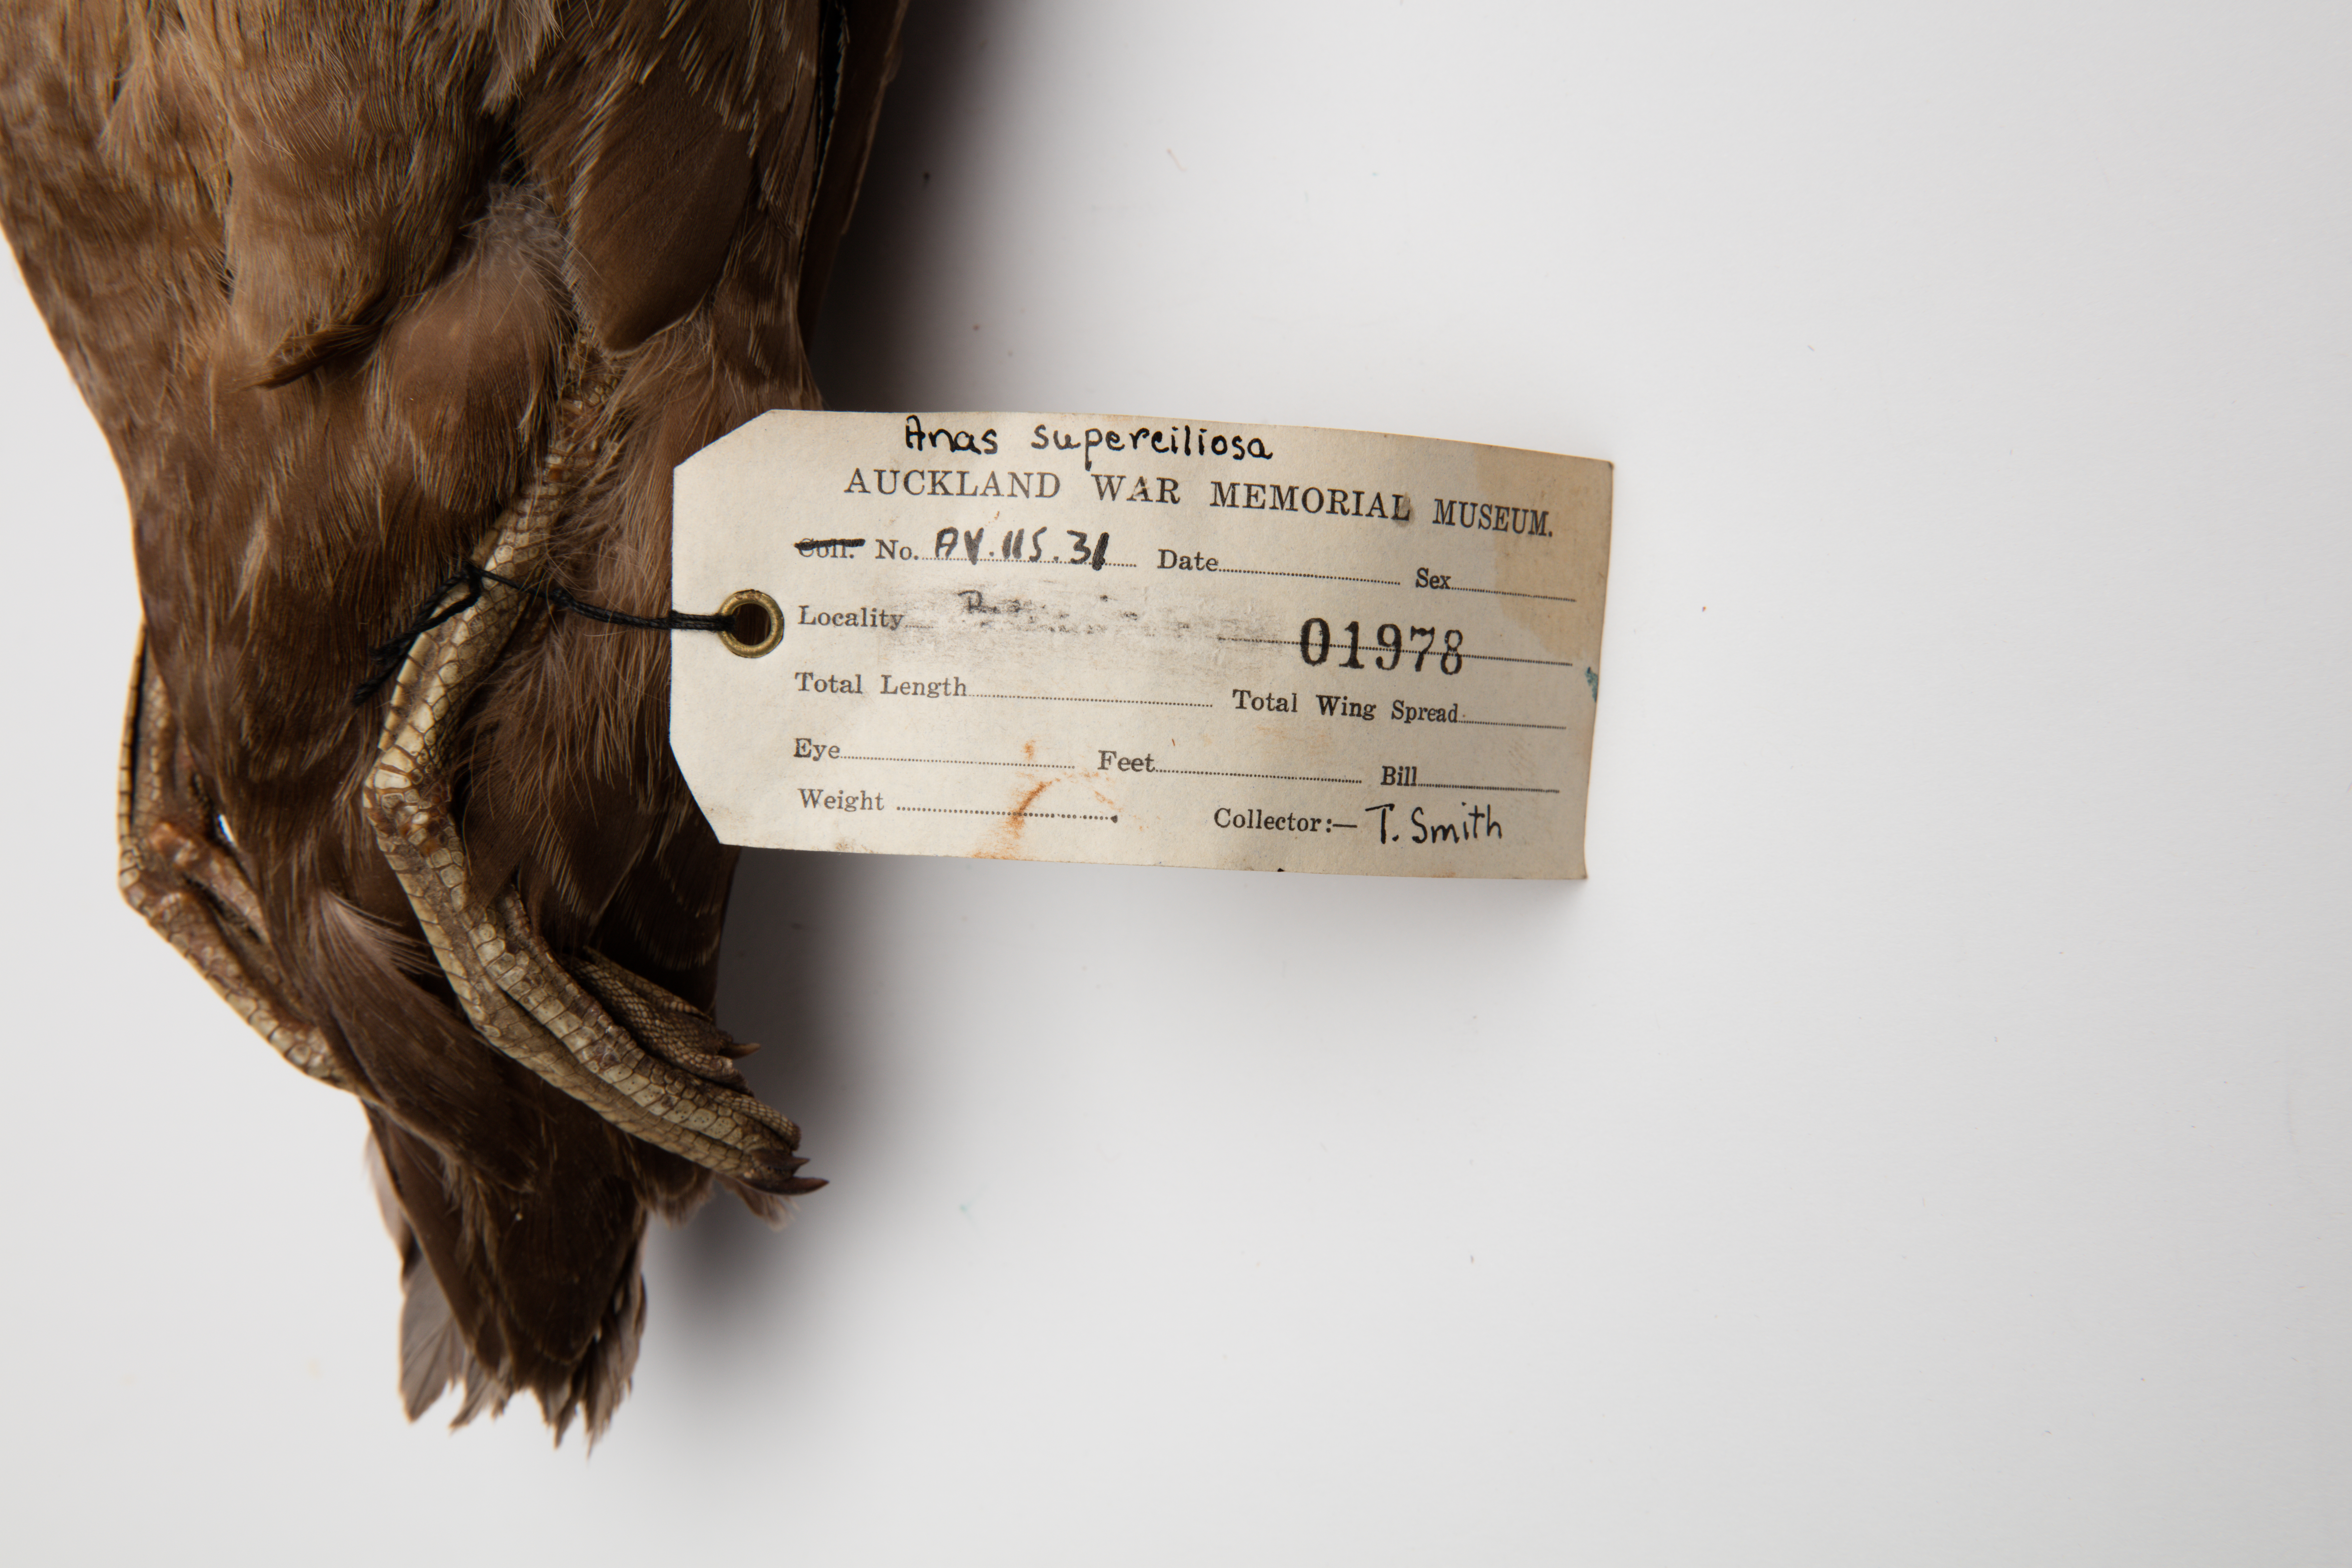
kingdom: Animalia
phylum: Chordata
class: Aves
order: Anseriformes
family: Anatidae
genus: Anas
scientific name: Anas superciliosa
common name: Pacific black duck
